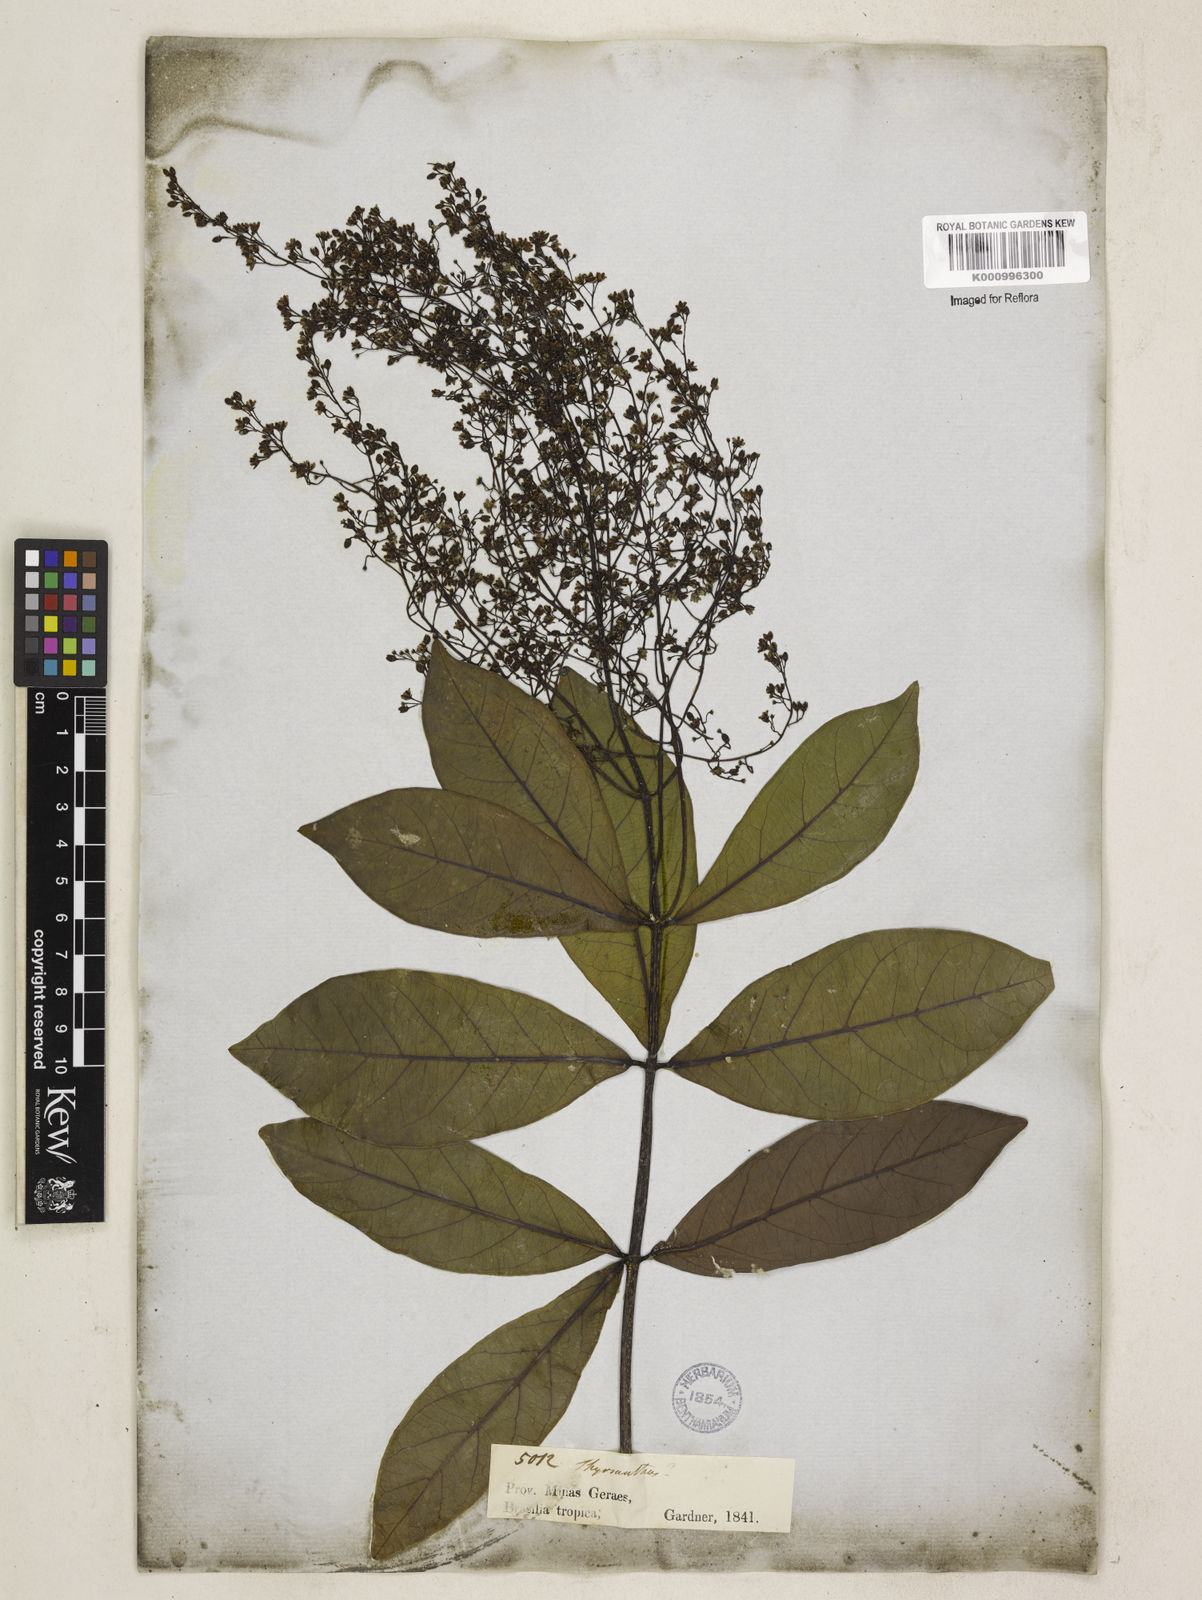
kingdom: Plantae
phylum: Tracheophyta
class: Magnoliopsida
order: Gentianales
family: Apocynaceae
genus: Forsteronia
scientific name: Forsteronia
